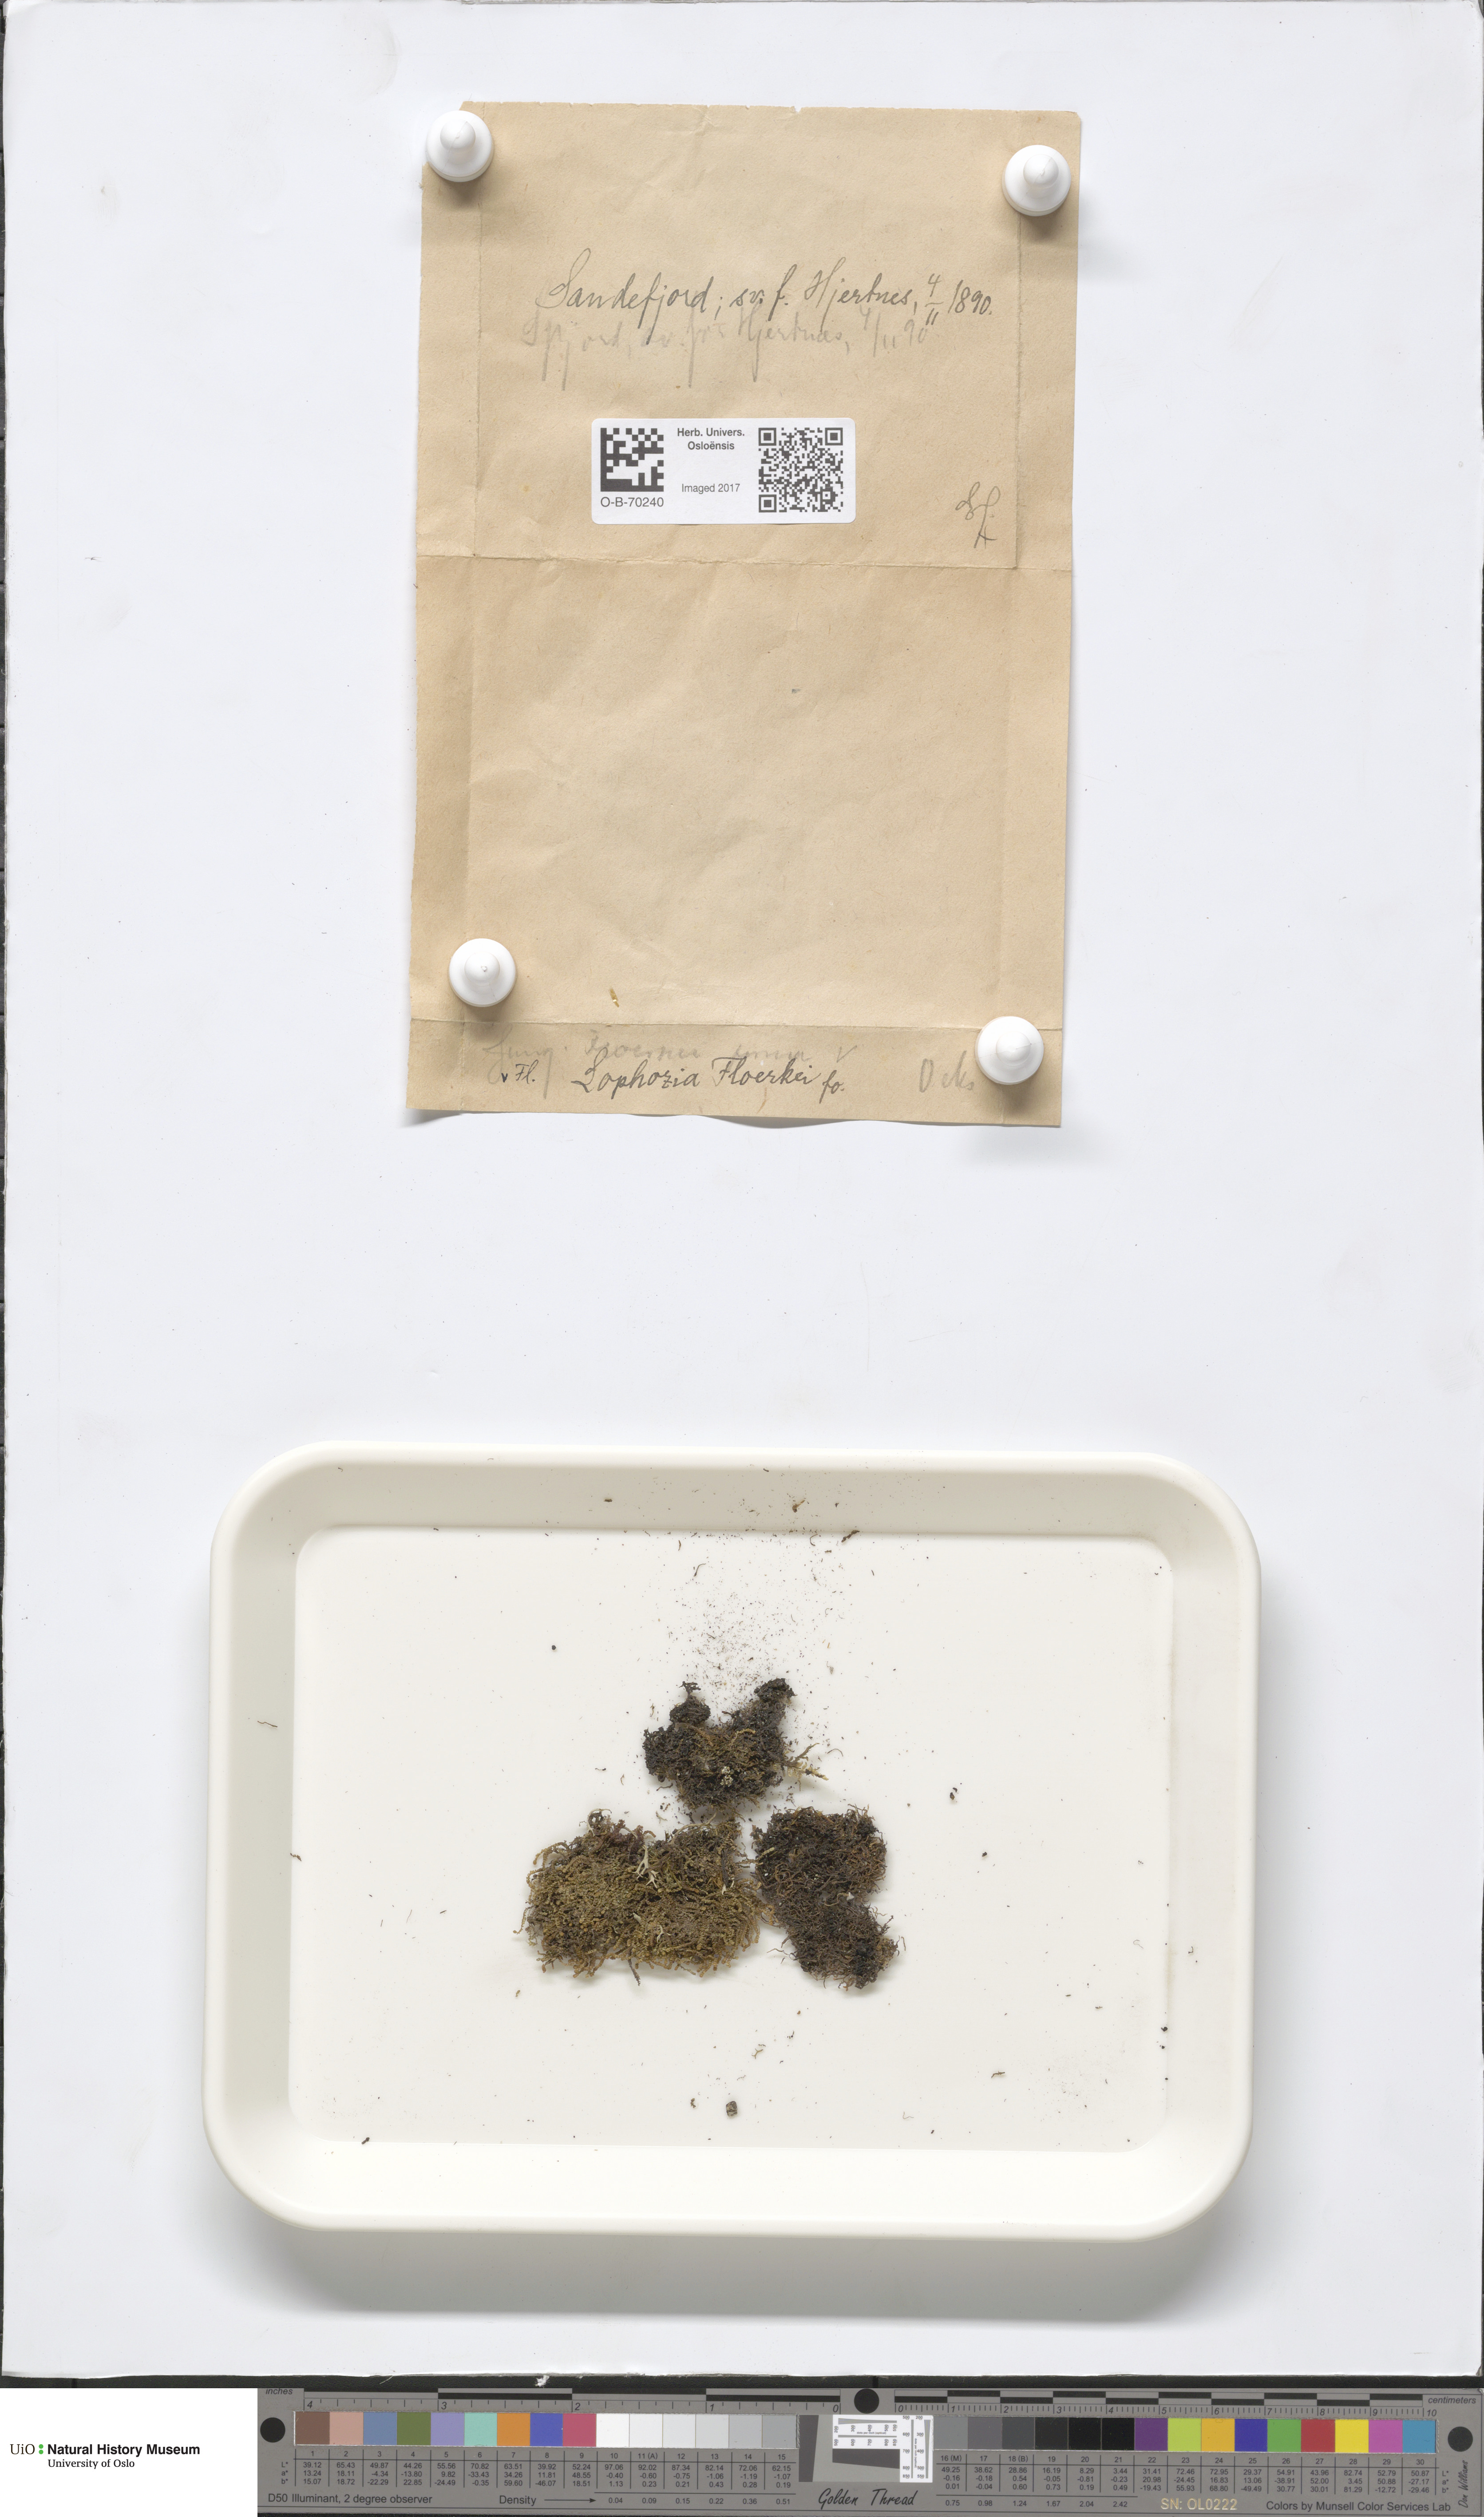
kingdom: Plantae
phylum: Marchantiophyta
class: Jungermanniopsida
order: Jungermanniales
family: Anastrophyllaceae
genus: Neoorthocaulis
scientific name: Neoorthocaulis floerkei
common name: Floerke's barbilophozia
